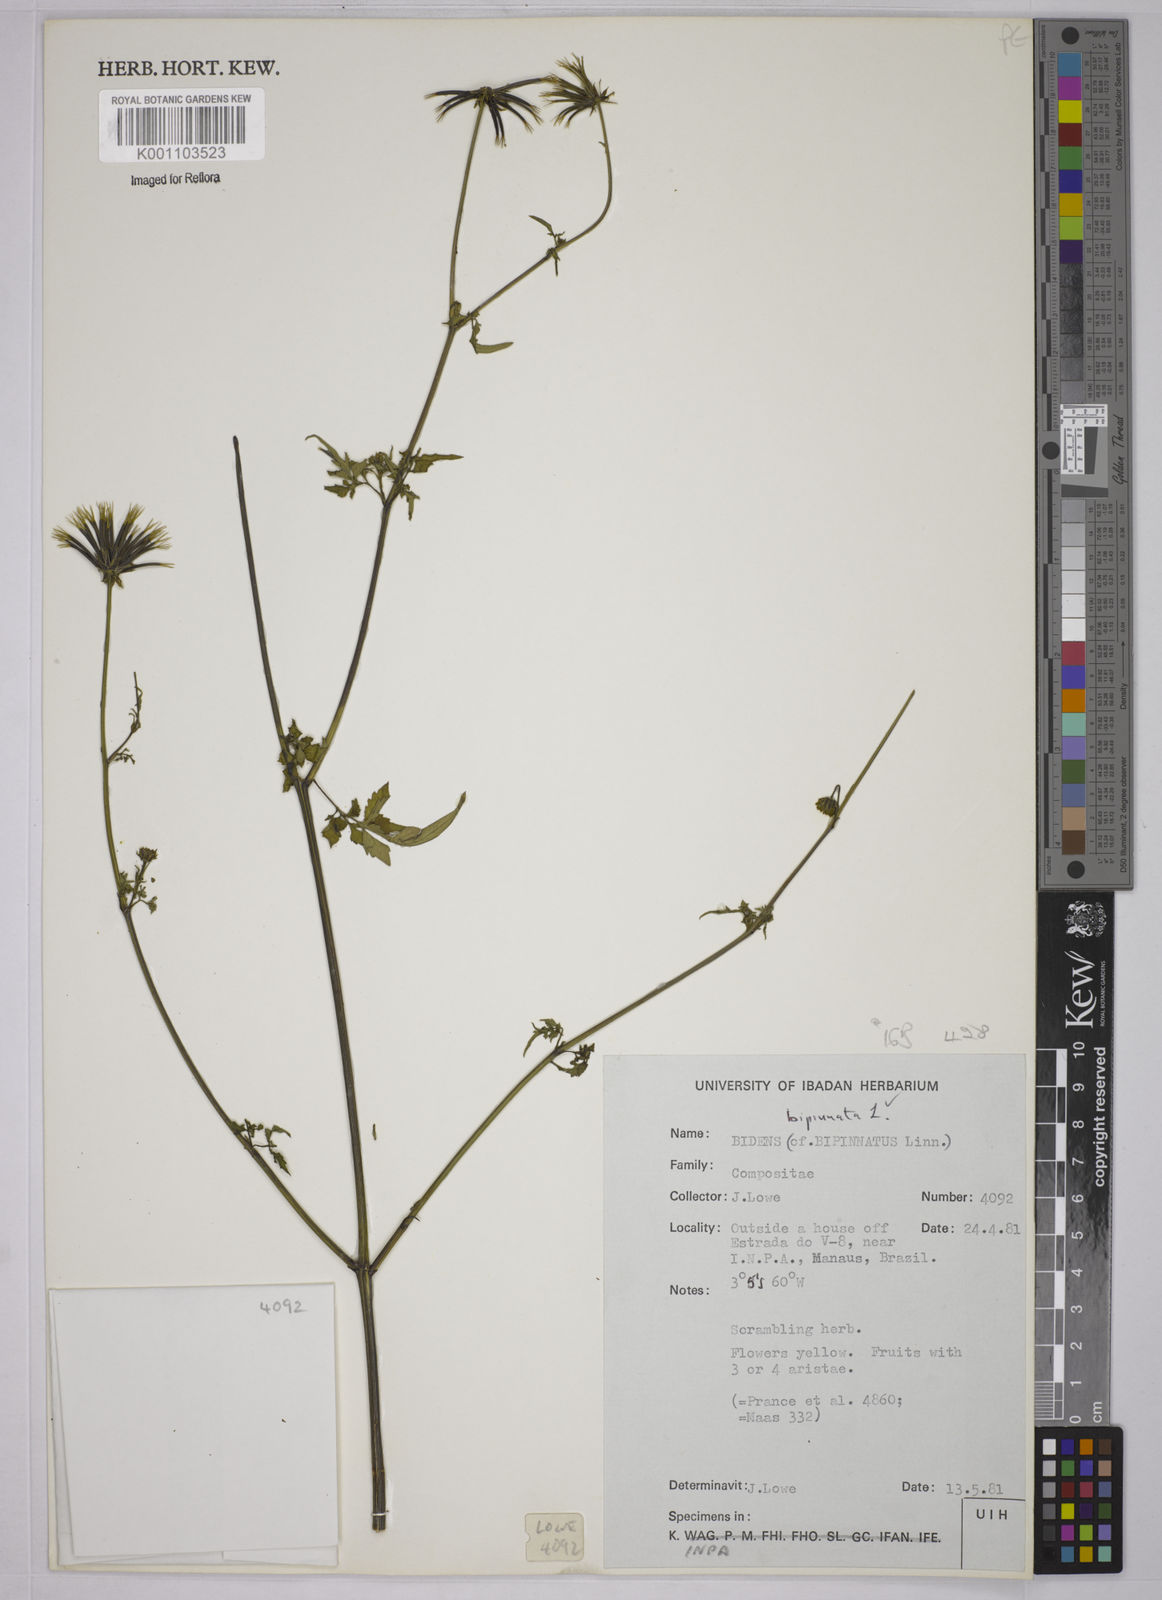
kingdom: Plantae
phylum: Tracheophyta
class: Magnoliopsida
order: Asterales
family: Asteraceae
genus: Bidens
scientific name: Bidens bipinnata
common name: Spanish-needles
